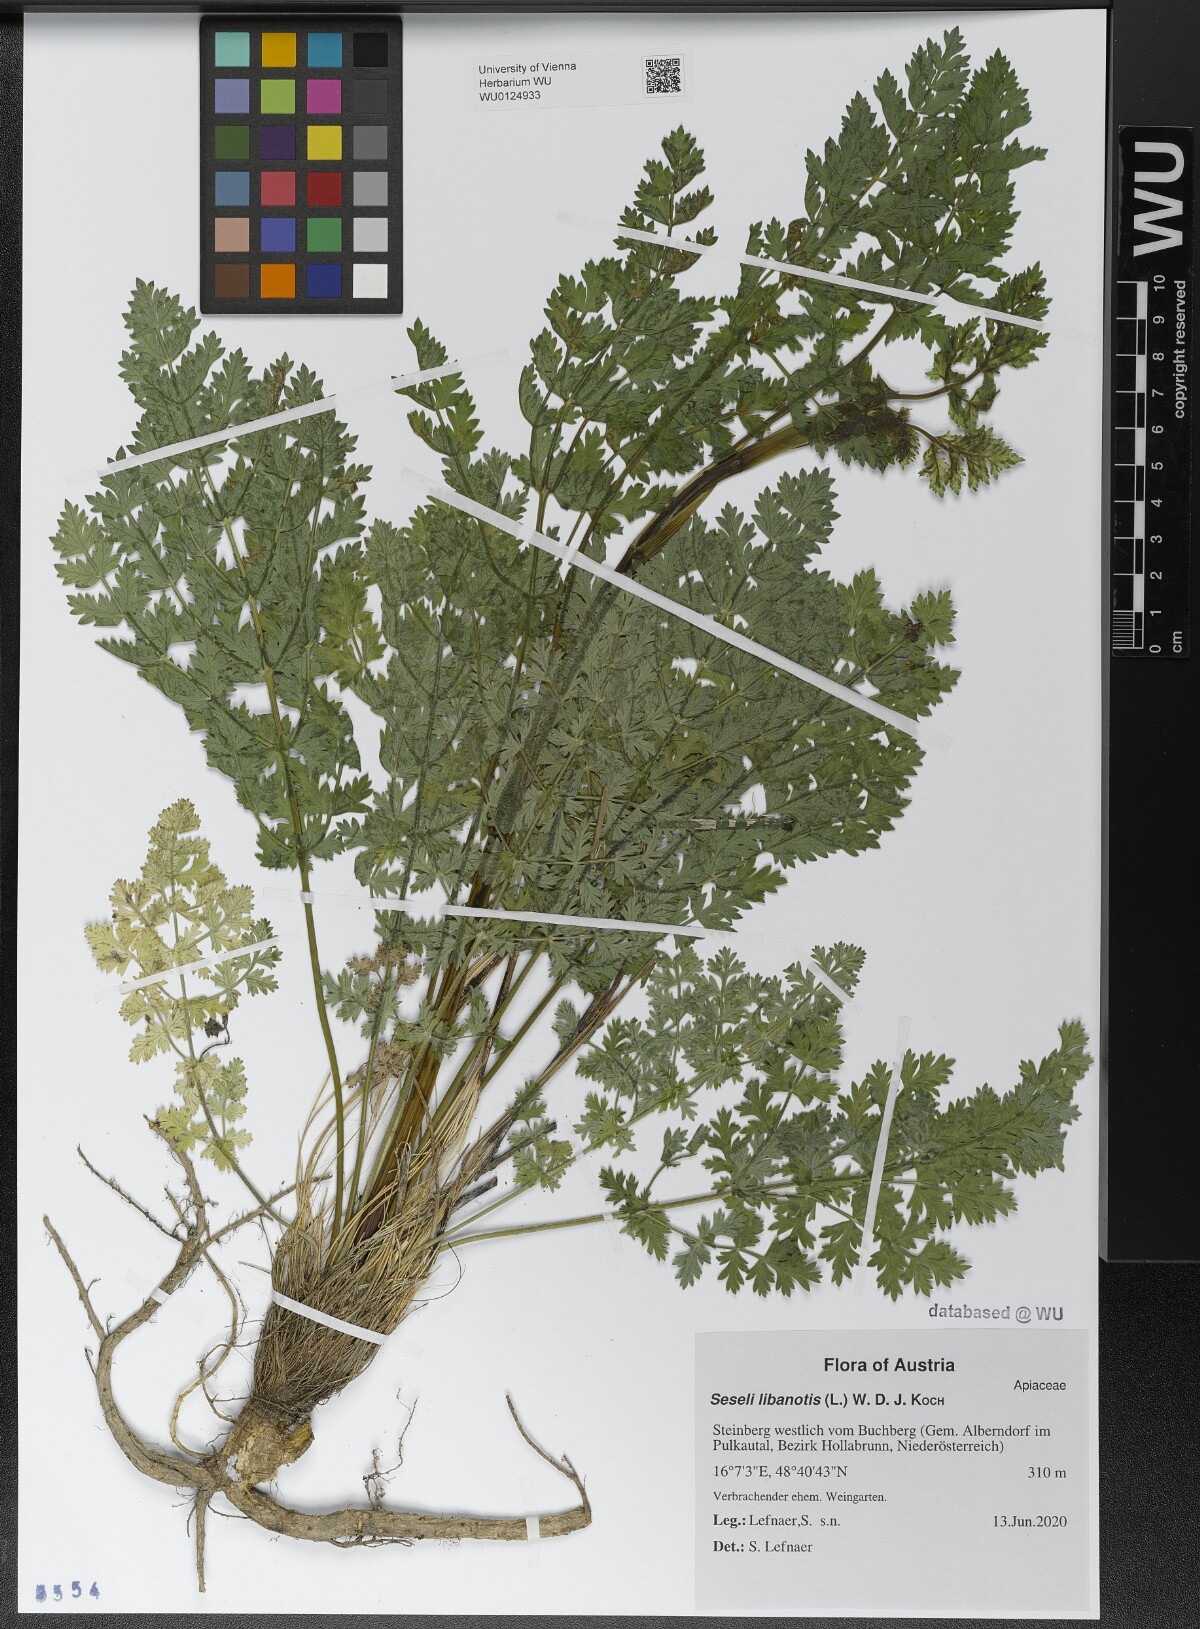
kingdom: Plantae
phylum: Tracheophyta
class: Magnoliopsida
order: Apiales
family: Apiaceae
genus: Seseli
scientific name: Seseli libanotis
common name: Mooncarrot
